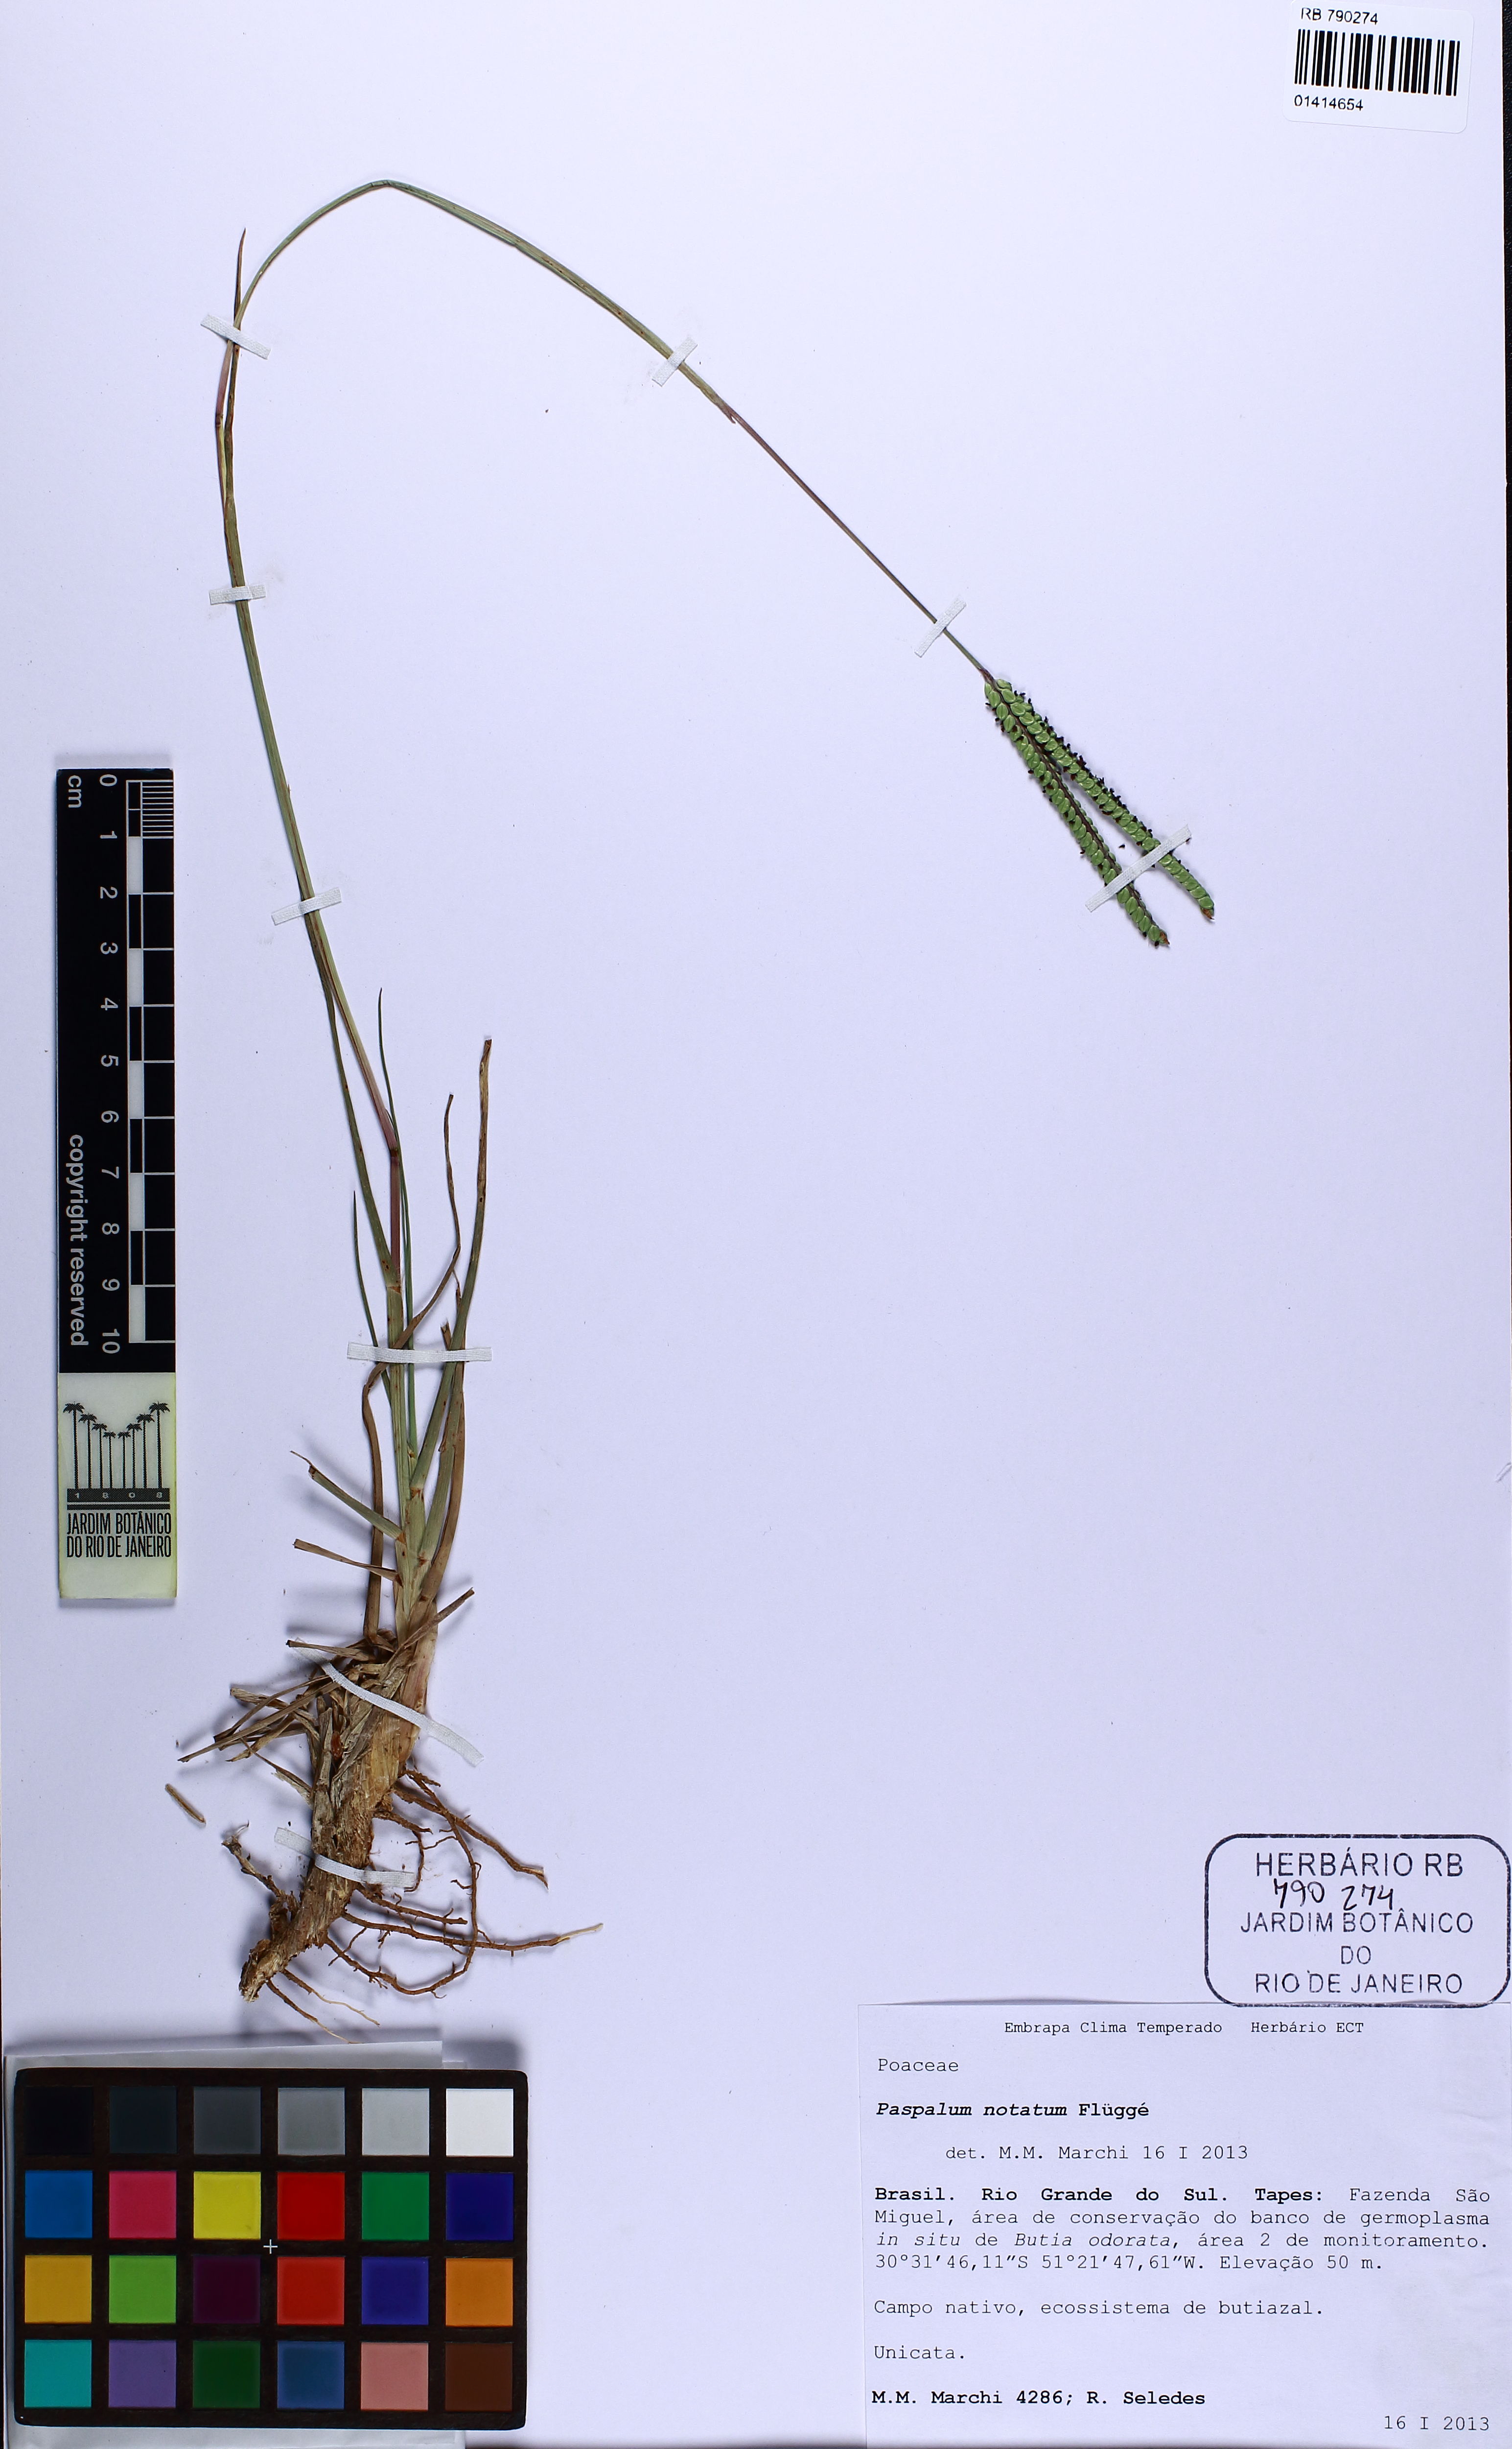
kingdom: Plantae
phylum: Tracheophyta
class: Liliopsida
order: Poales
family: Poaceae
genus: Paspalum
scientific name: Paspalum notatum
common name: Bahiagrass
